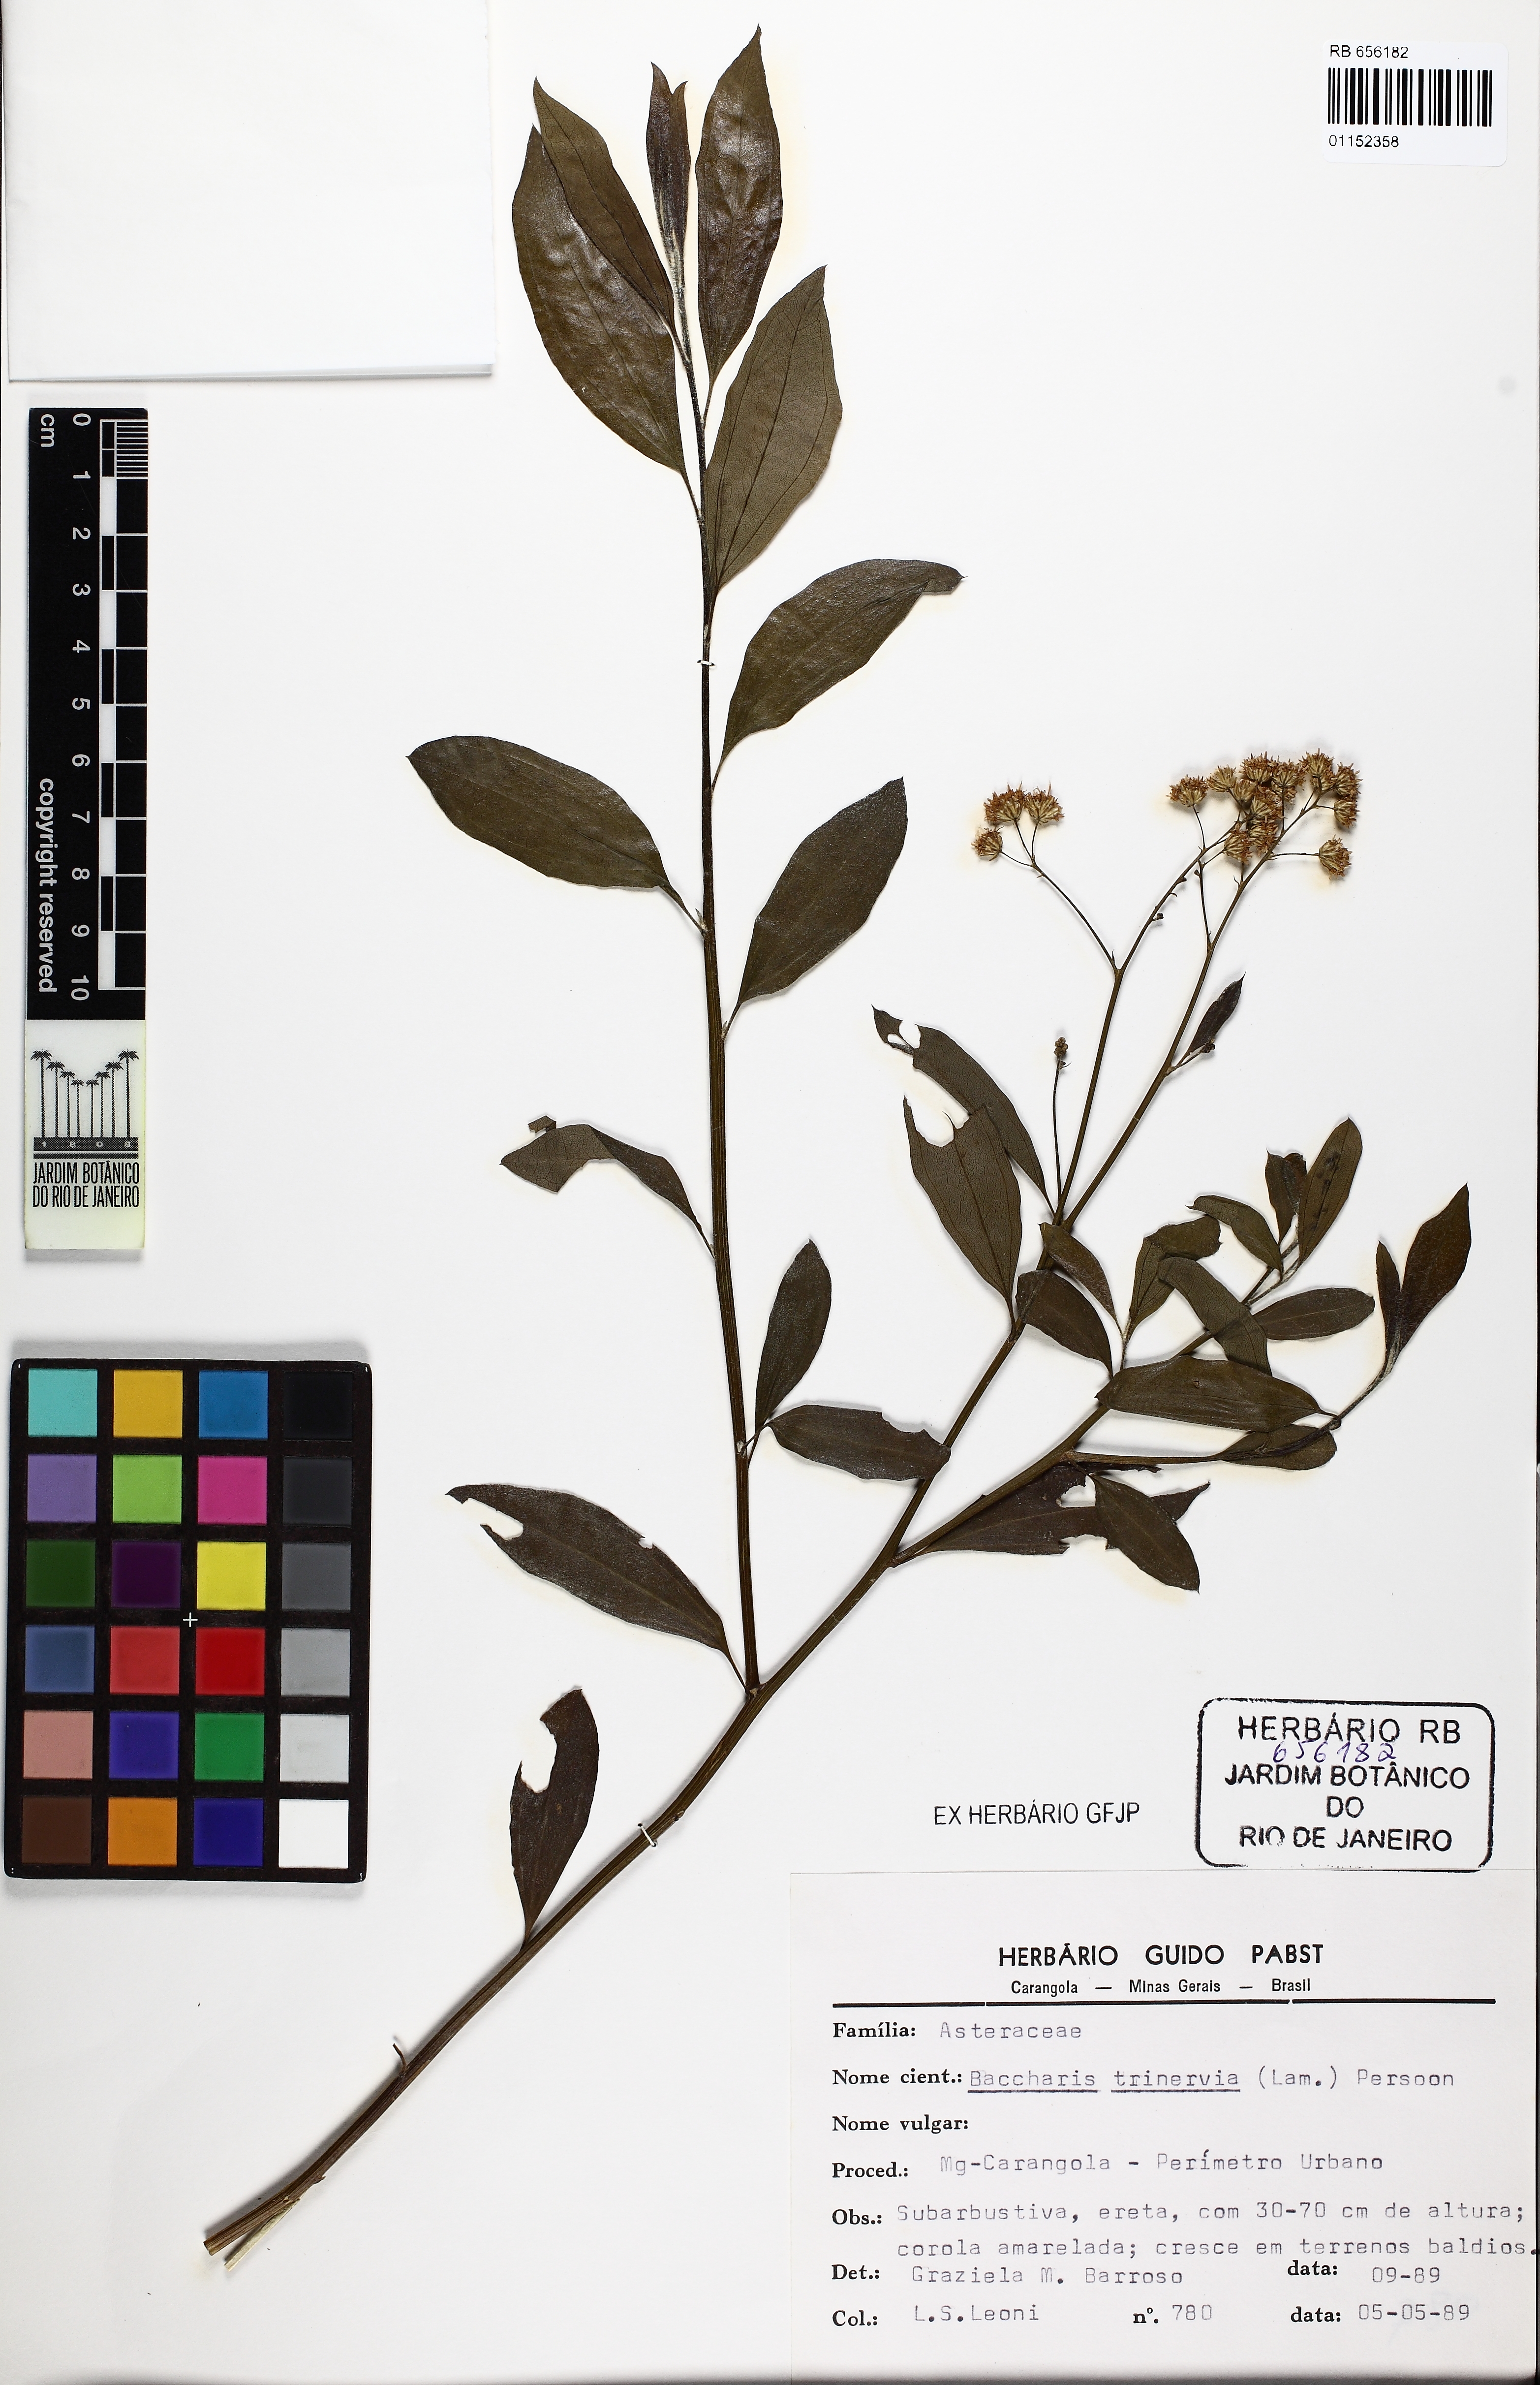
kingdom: Plantae
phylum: Tracheophyta
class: Magnoliopsida
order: Asterales
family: Asteraceae
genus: Baccharis
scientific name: Baccharis trinervis
